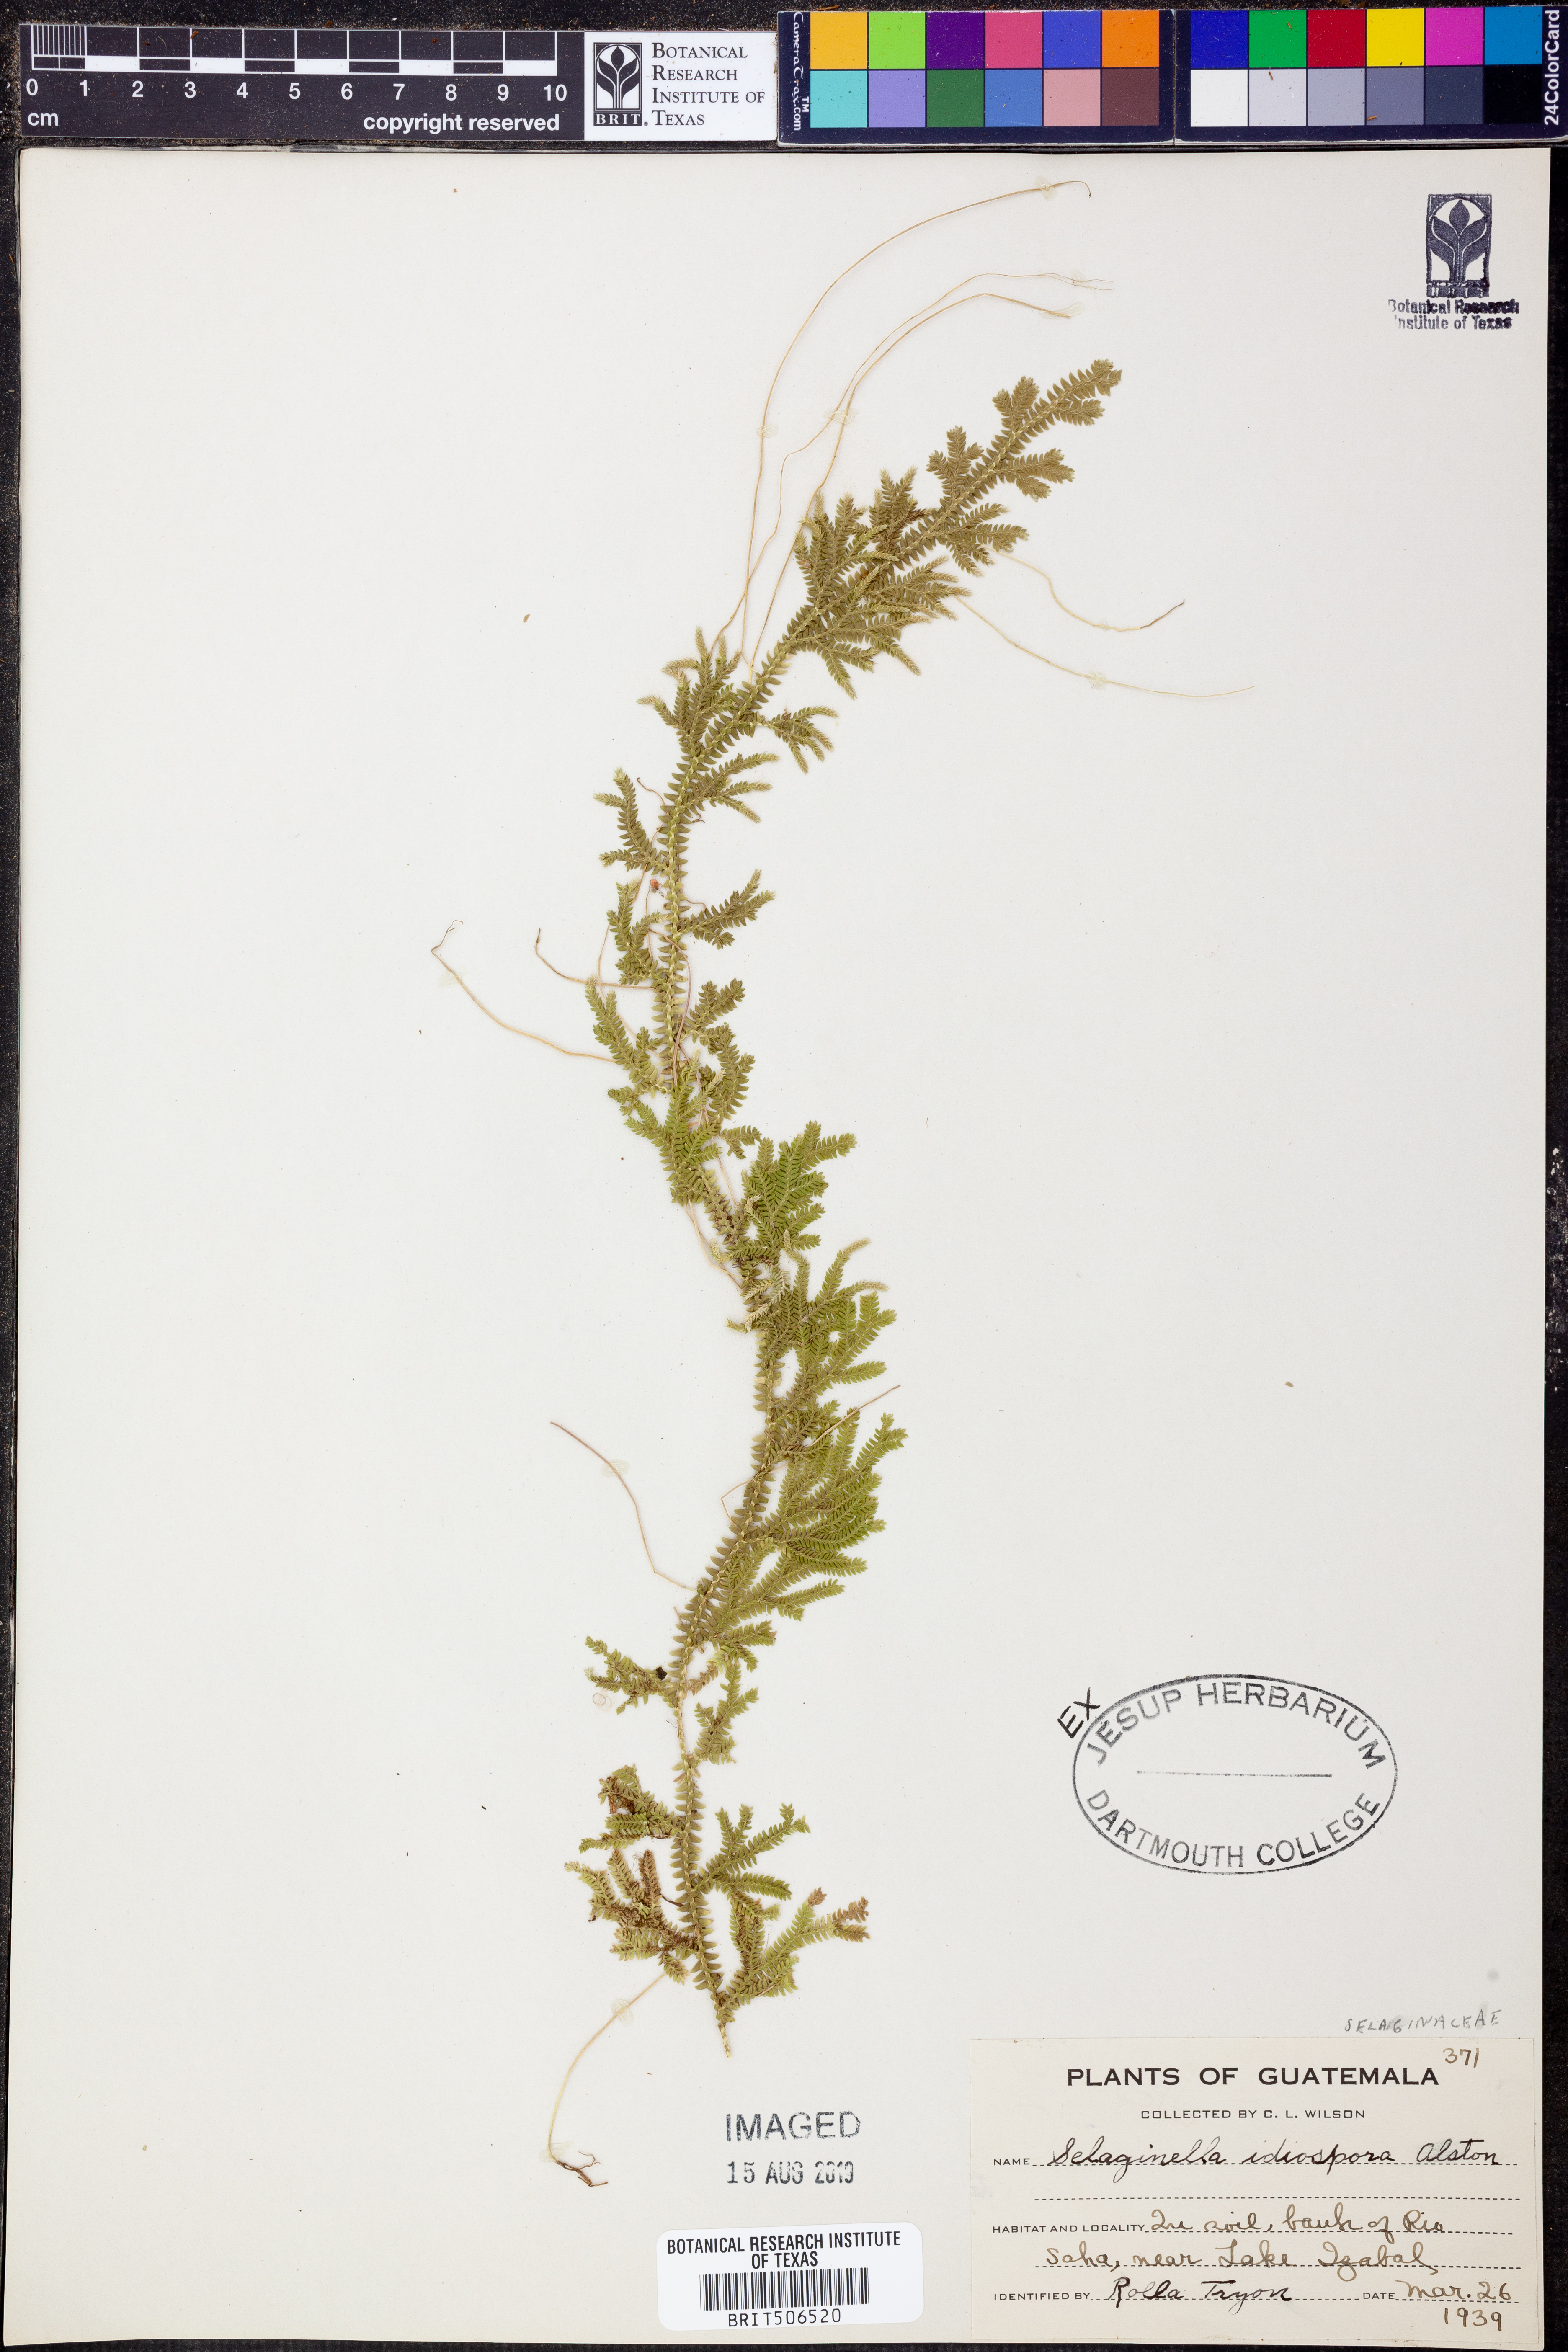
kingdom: Plantae
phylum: Tracheophyta
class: Lycopodiopsida
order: Selaginellales
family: Selaginellaceae
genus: Selaginella
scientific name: Selaginella idiospora
